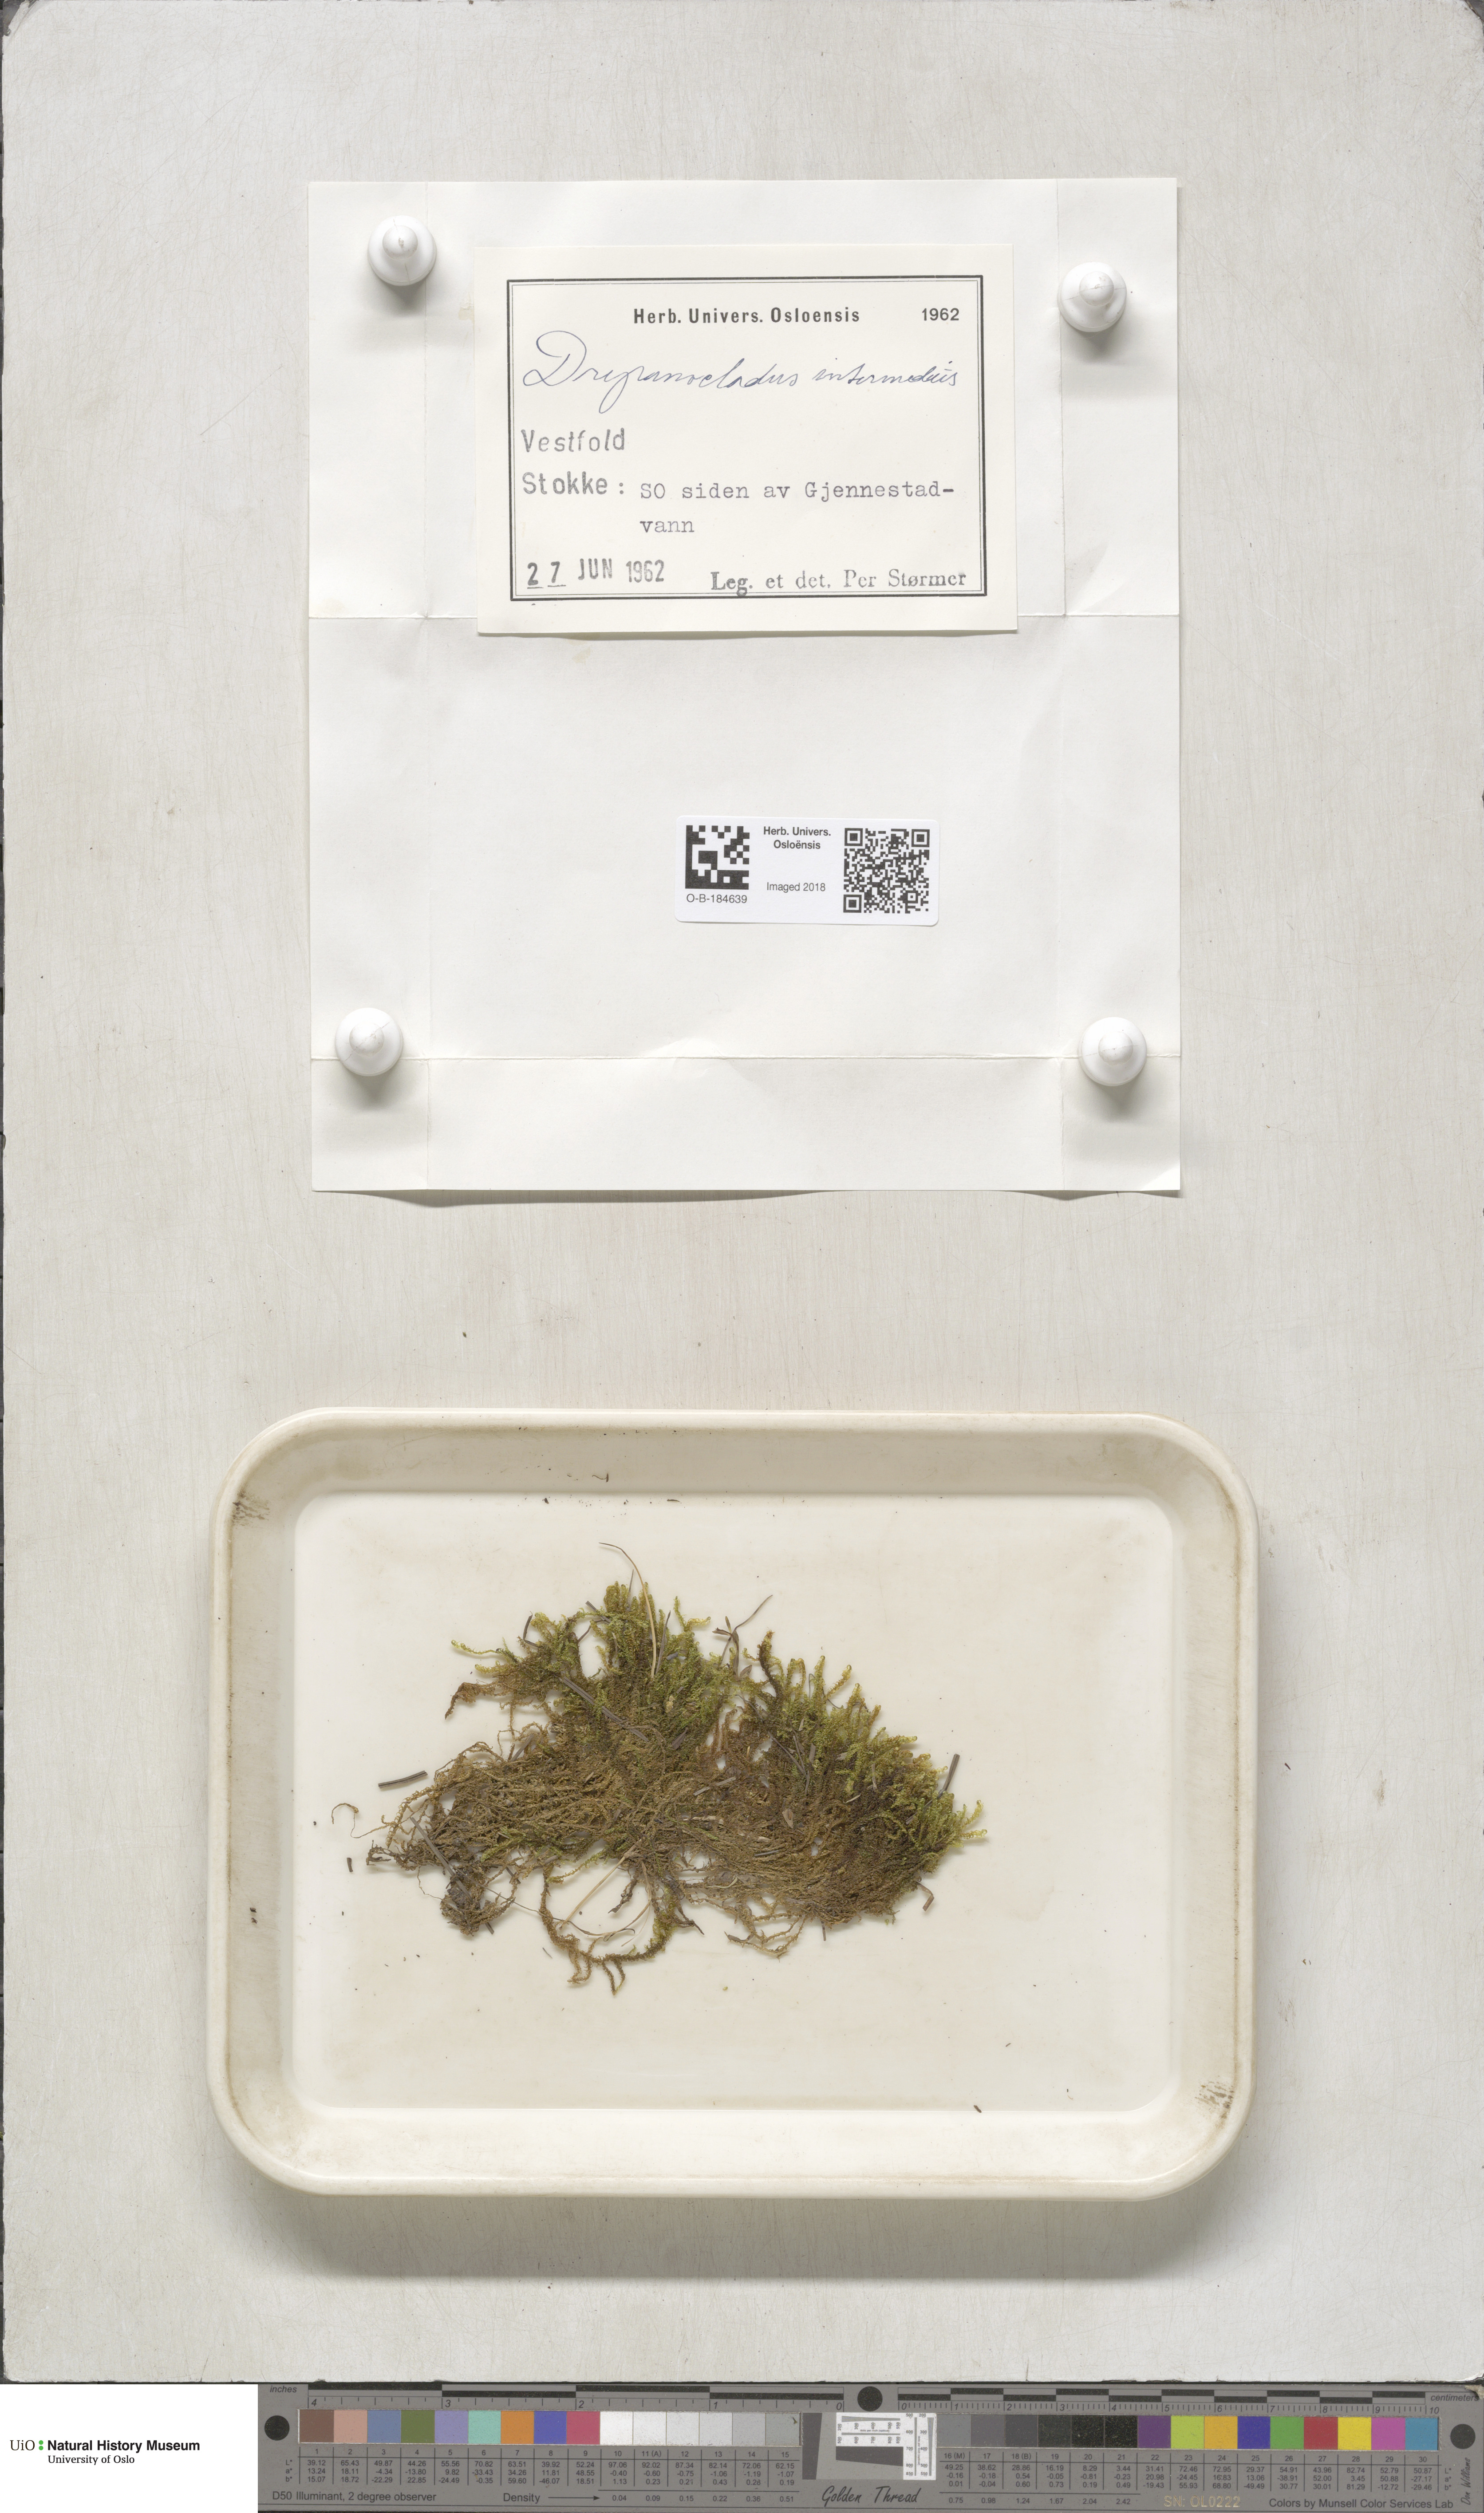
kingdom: Plantae
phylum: Bryophyta
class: Bryopsida
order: Hypnales
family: Scorpidiaceae
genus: Scorpidium
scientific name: Scorpidium cossonii
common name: Cosson's hook moss
